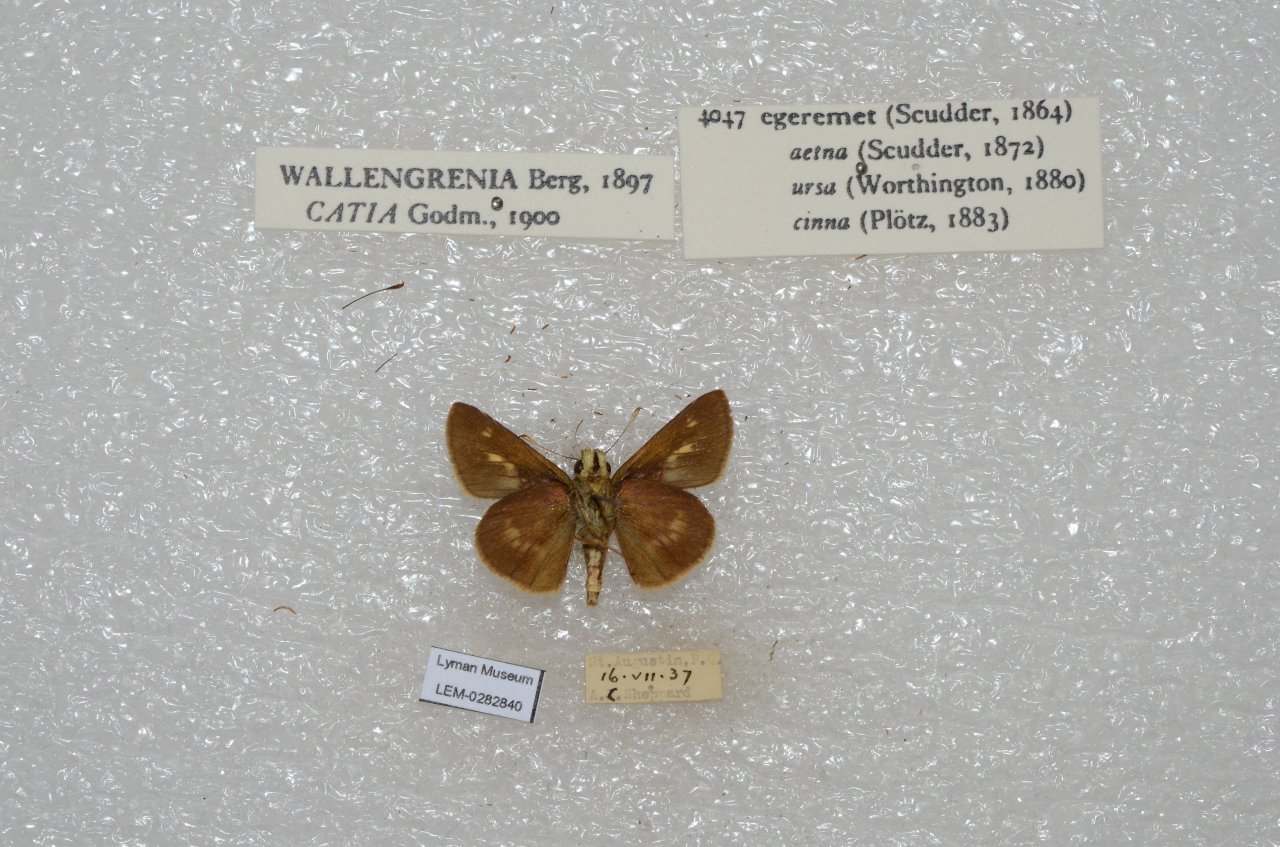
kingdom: Animalia
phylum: Arthropoda
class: Insecta
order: Lepidoptera
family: Hesperiidae
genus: Polites
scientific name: Polites egeremet
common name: Northern Broken-Dash
